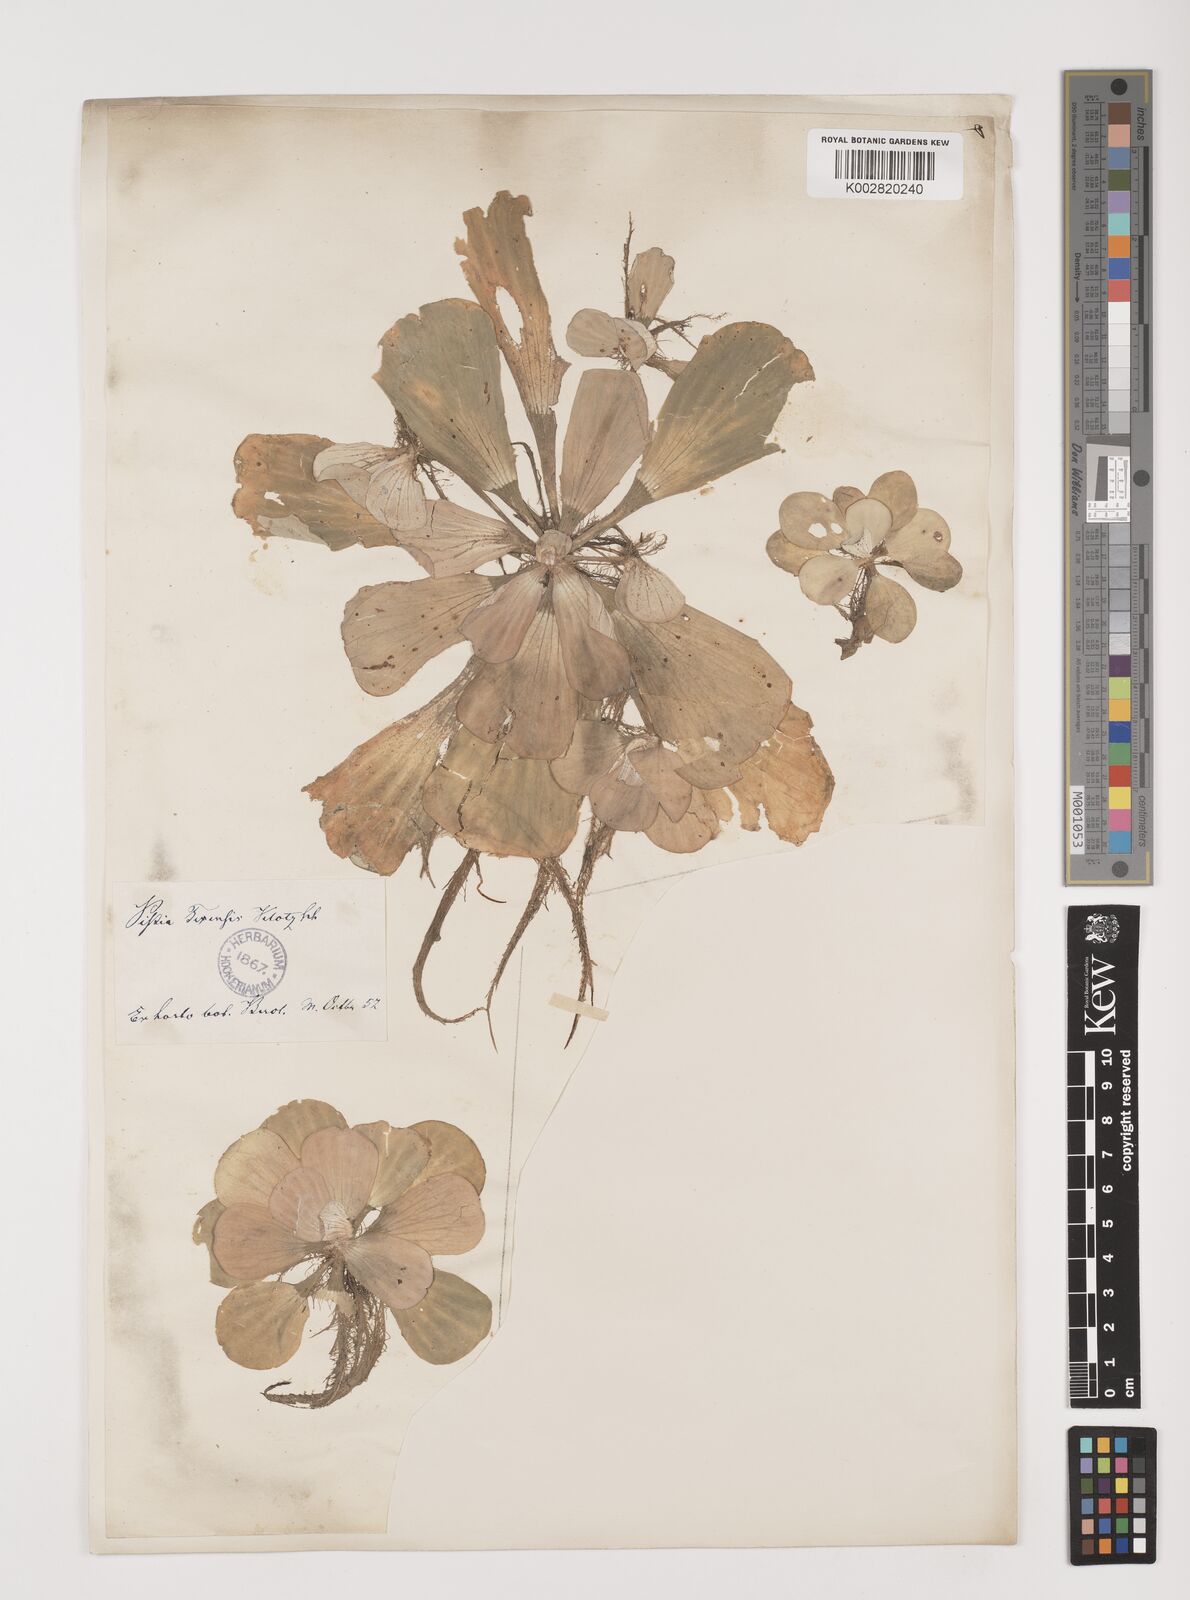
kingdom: Plantae
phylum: Tracheophyta
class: Liliopsida
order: Alismatales
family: Araceae
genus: Pistia
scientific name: Pistia stratiotes
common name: Water lettuce
